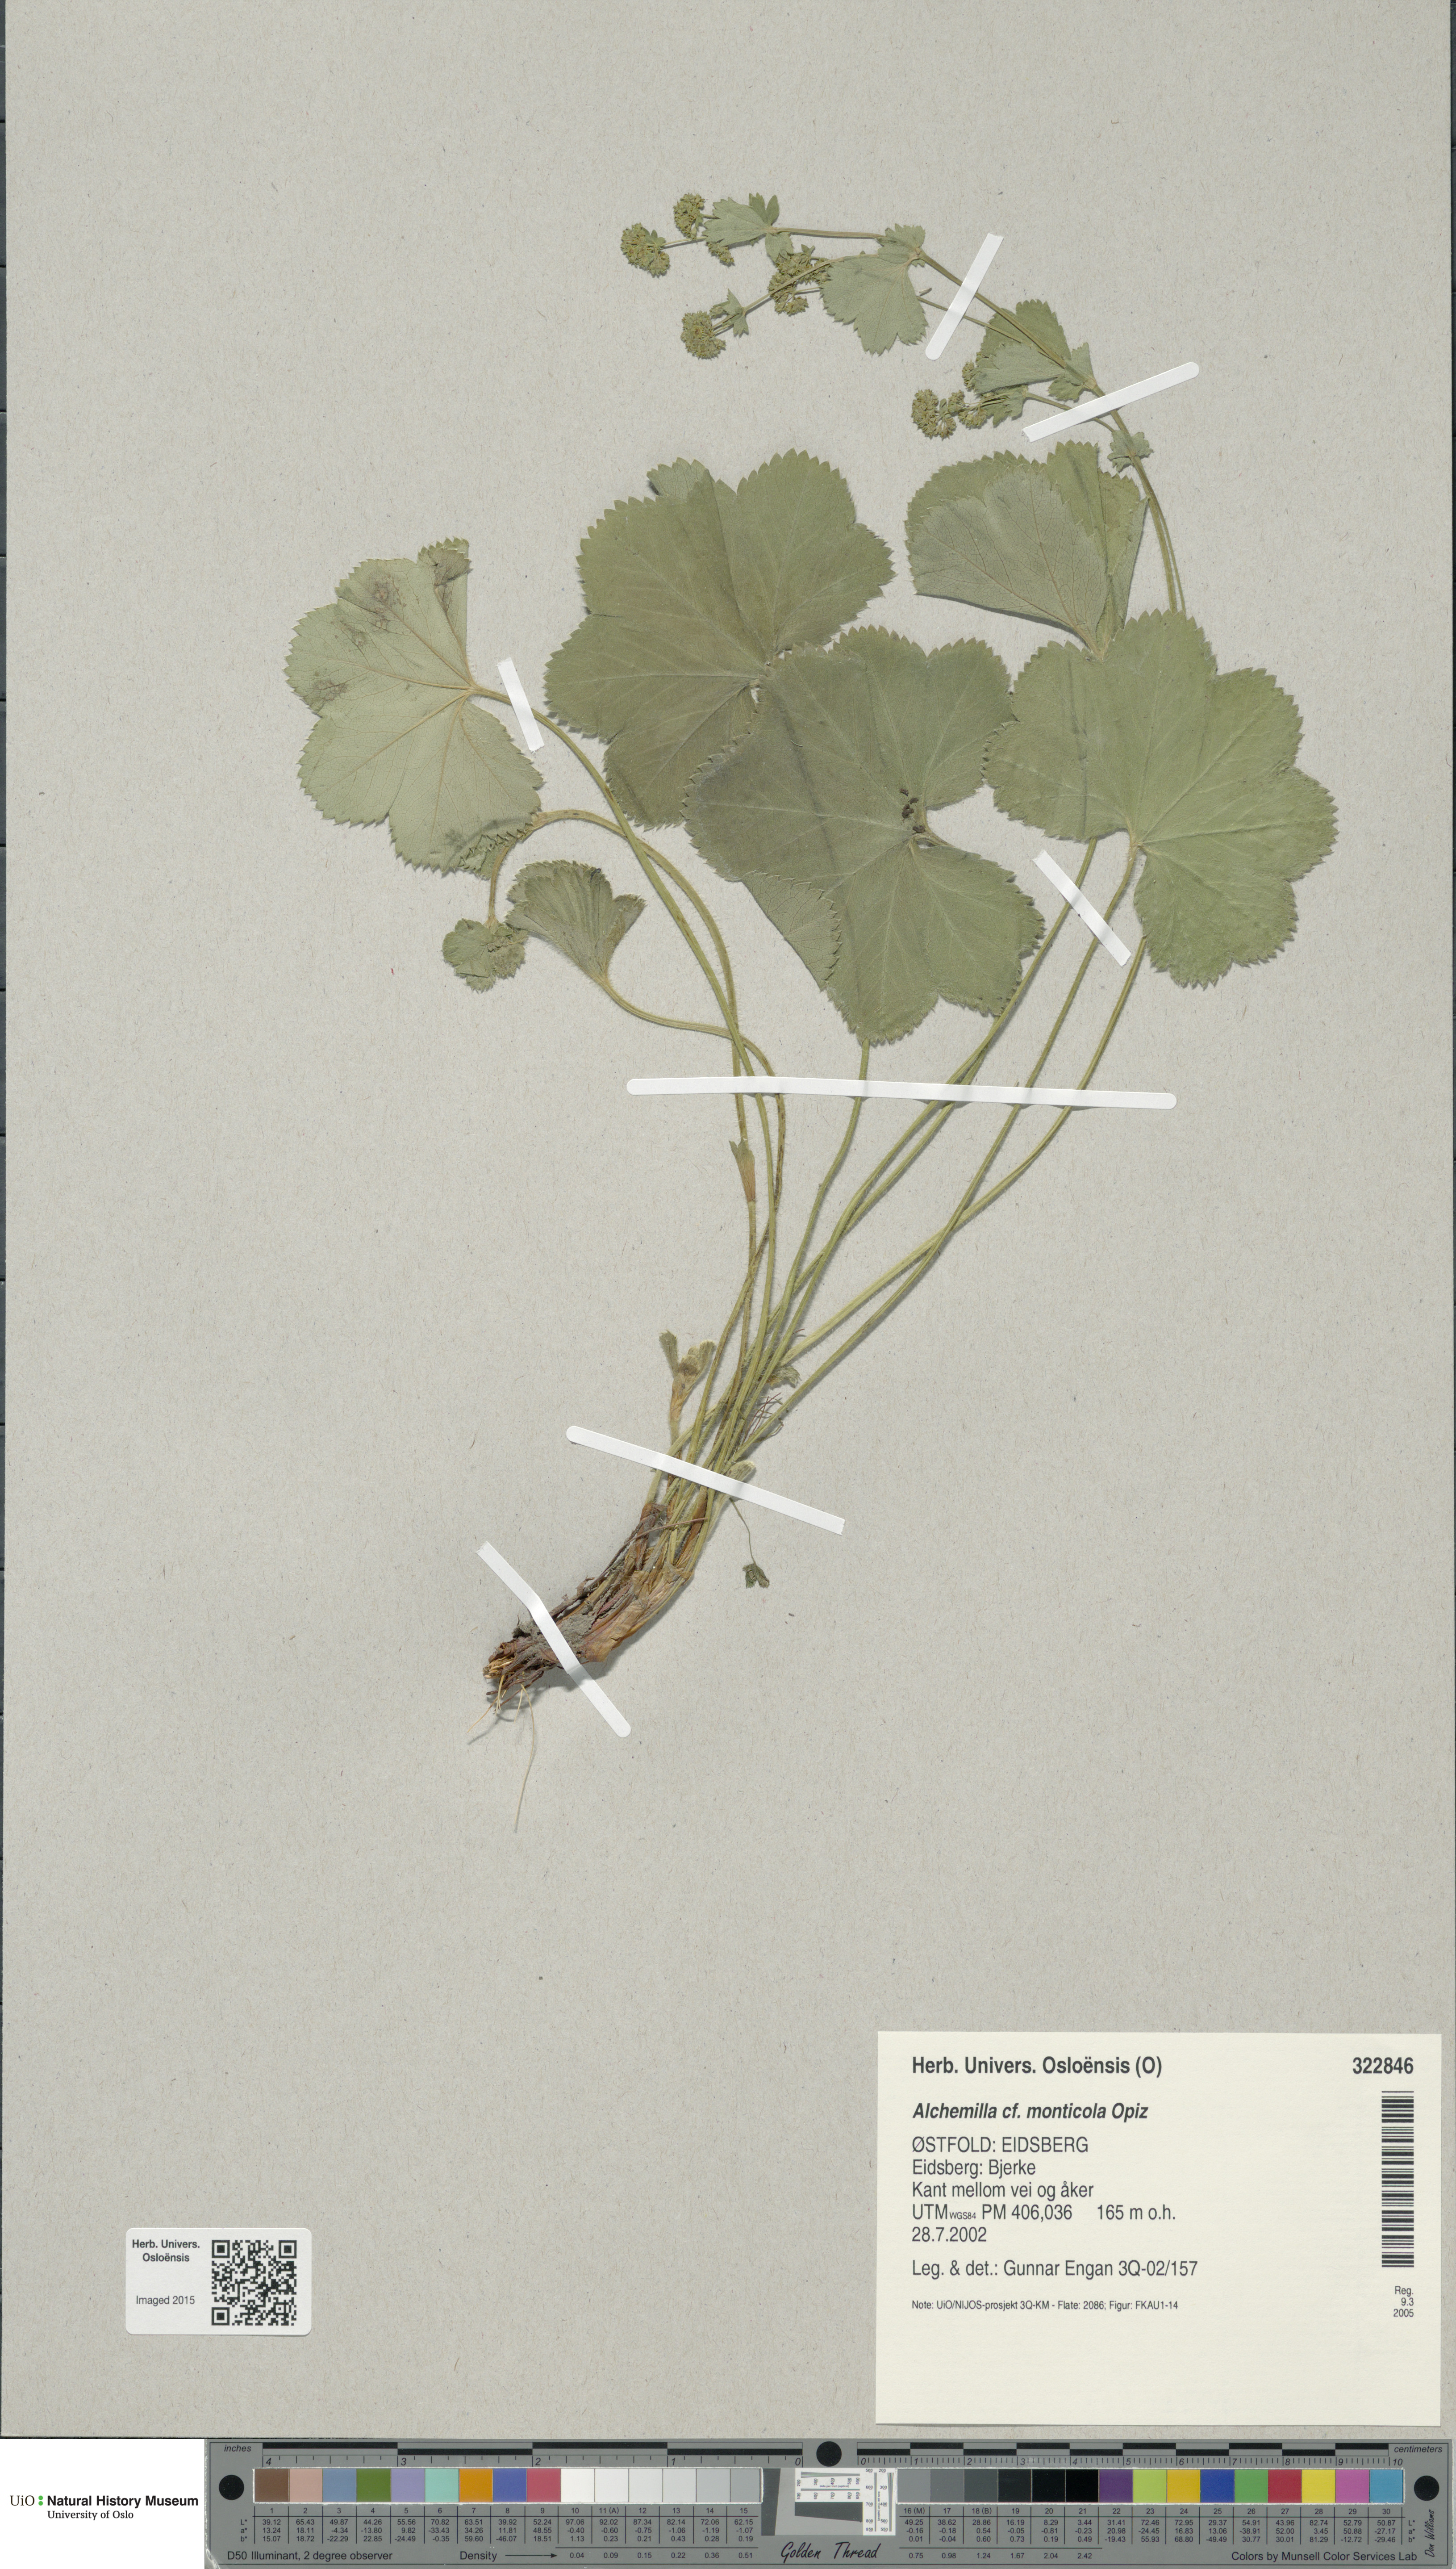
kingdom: Plantae
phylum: Tracheophyta
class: Magnoliopsida
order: Rosales
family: Rosaceae
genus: Alchemilla
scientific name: Alchemilla monticola
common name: Hairy lady's mantle
